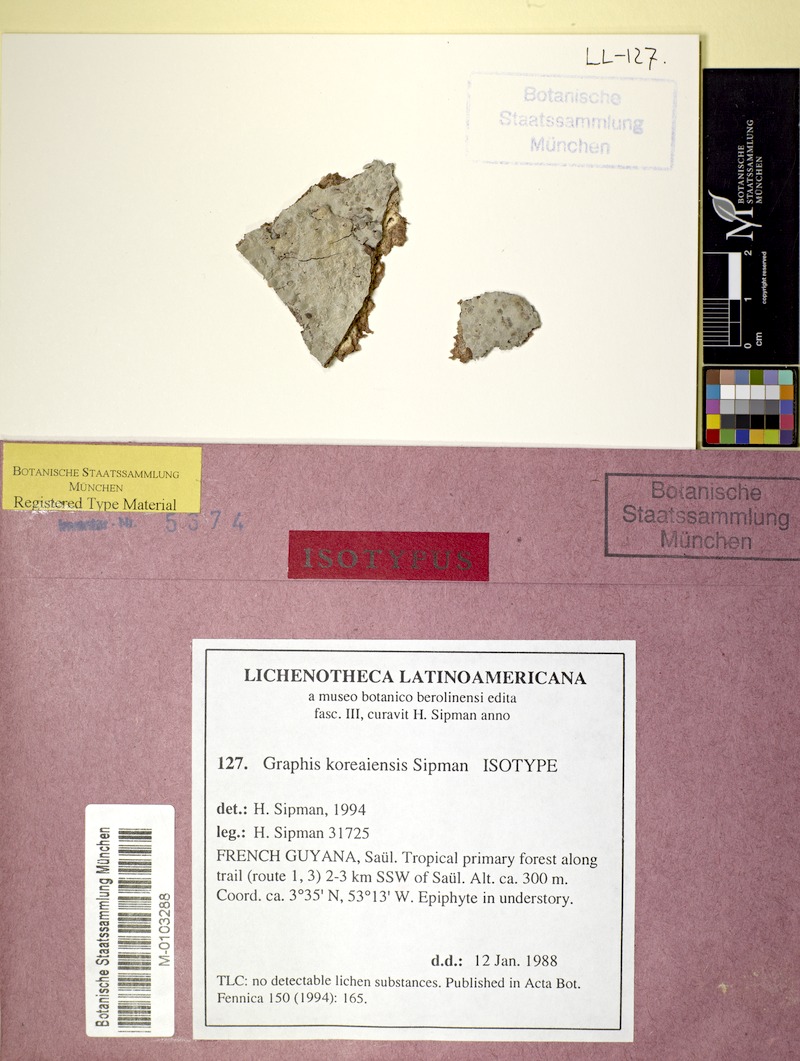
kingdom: Fungi
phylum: Ascomycota
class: Lecanoromycetes
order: Ostropales
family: Graphidaceae
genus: Gymnographopsis
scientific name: Gymnographopsis koreaiensis
